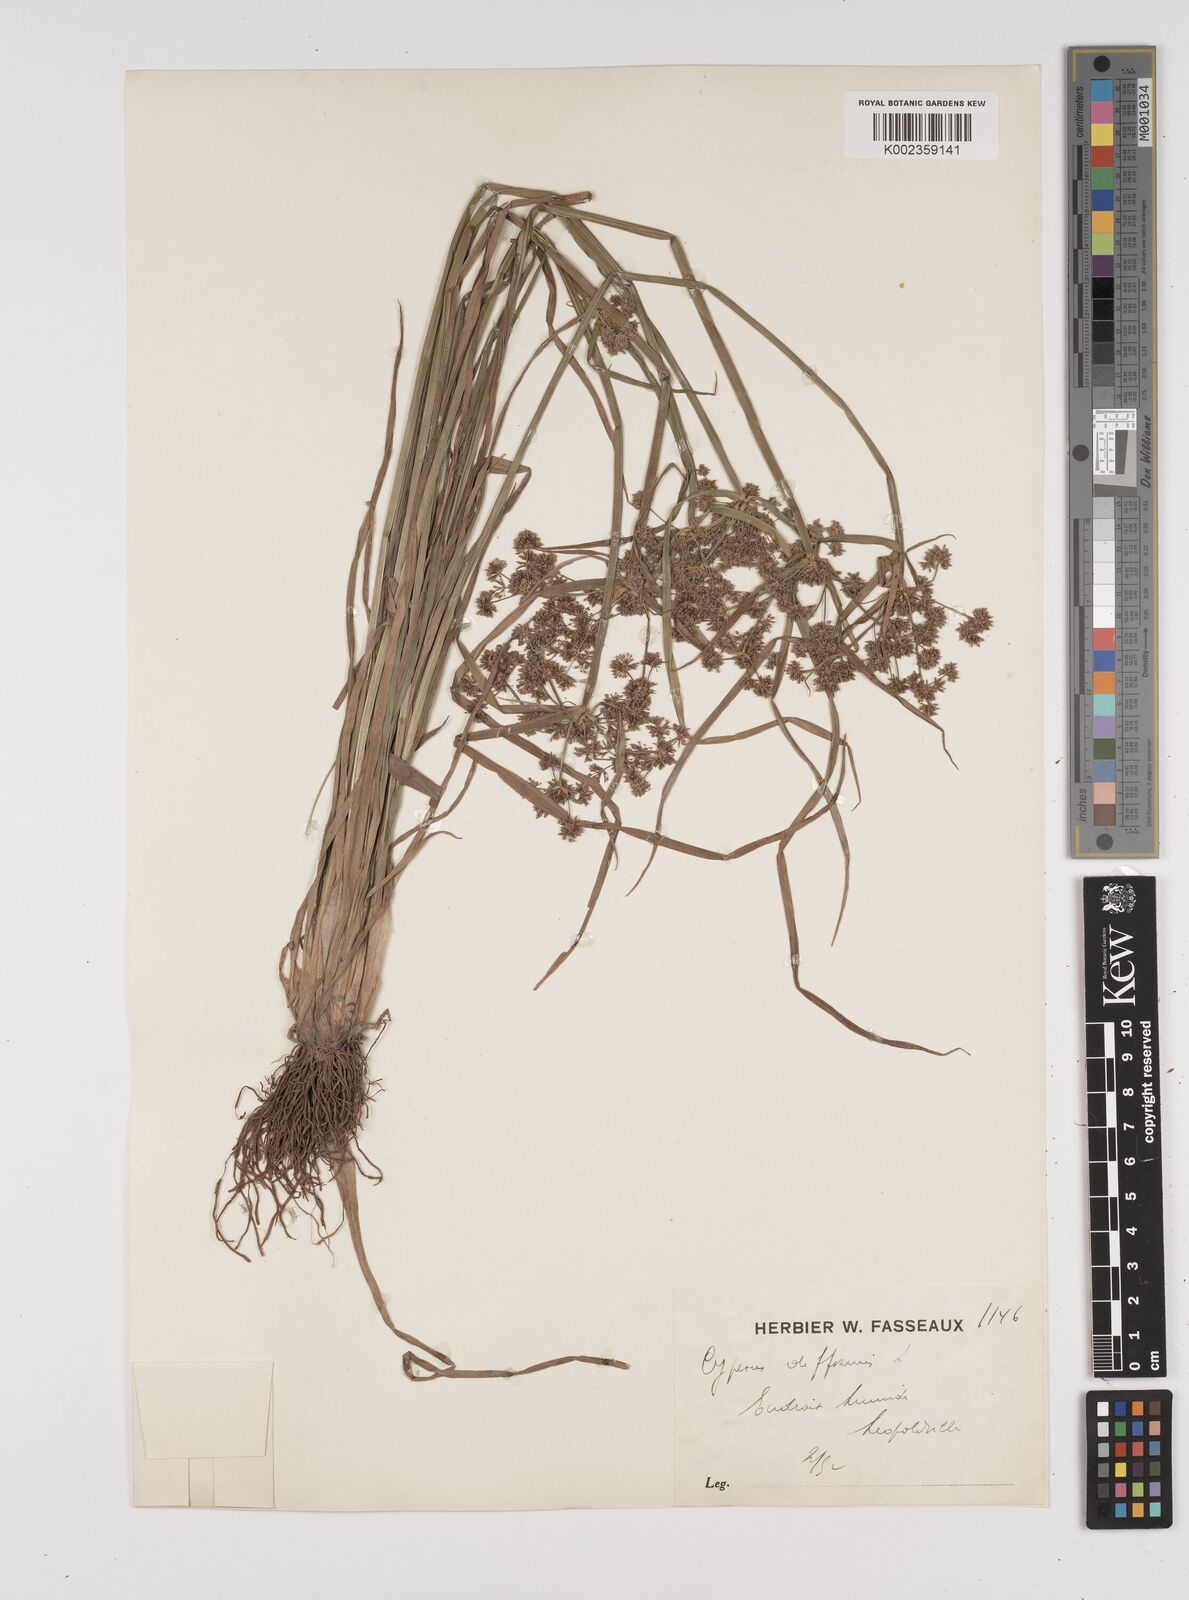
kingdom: Plantae
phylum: Tracheophyta
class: Liliopsida
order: Poales
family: Cyperaceae
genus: Cyperus
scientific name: Cyperus difformis
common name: Variable flatsedge
